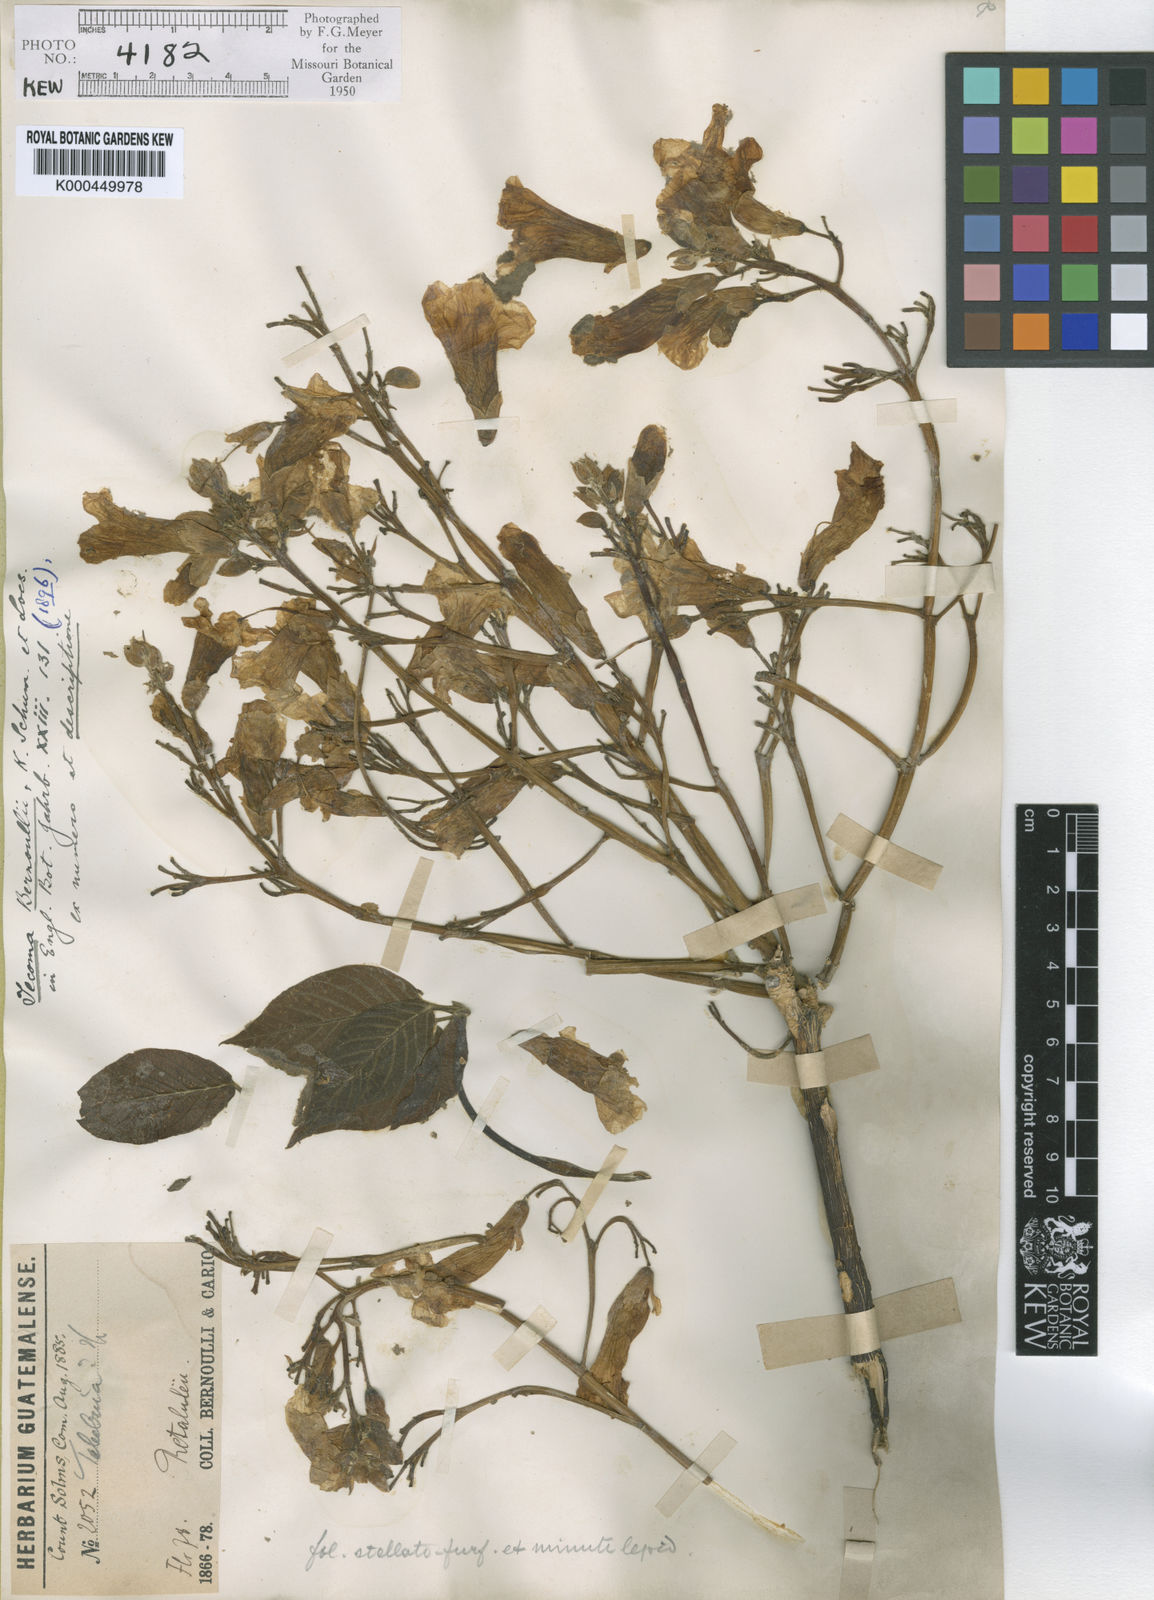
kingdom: Plantae
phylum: Tracheophyta
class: Magnoliopsida
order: Lamiales
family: Bignoniaceae
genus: Roseodendron
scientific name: Roseodendron donnell-smithii
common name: White-mahogany
